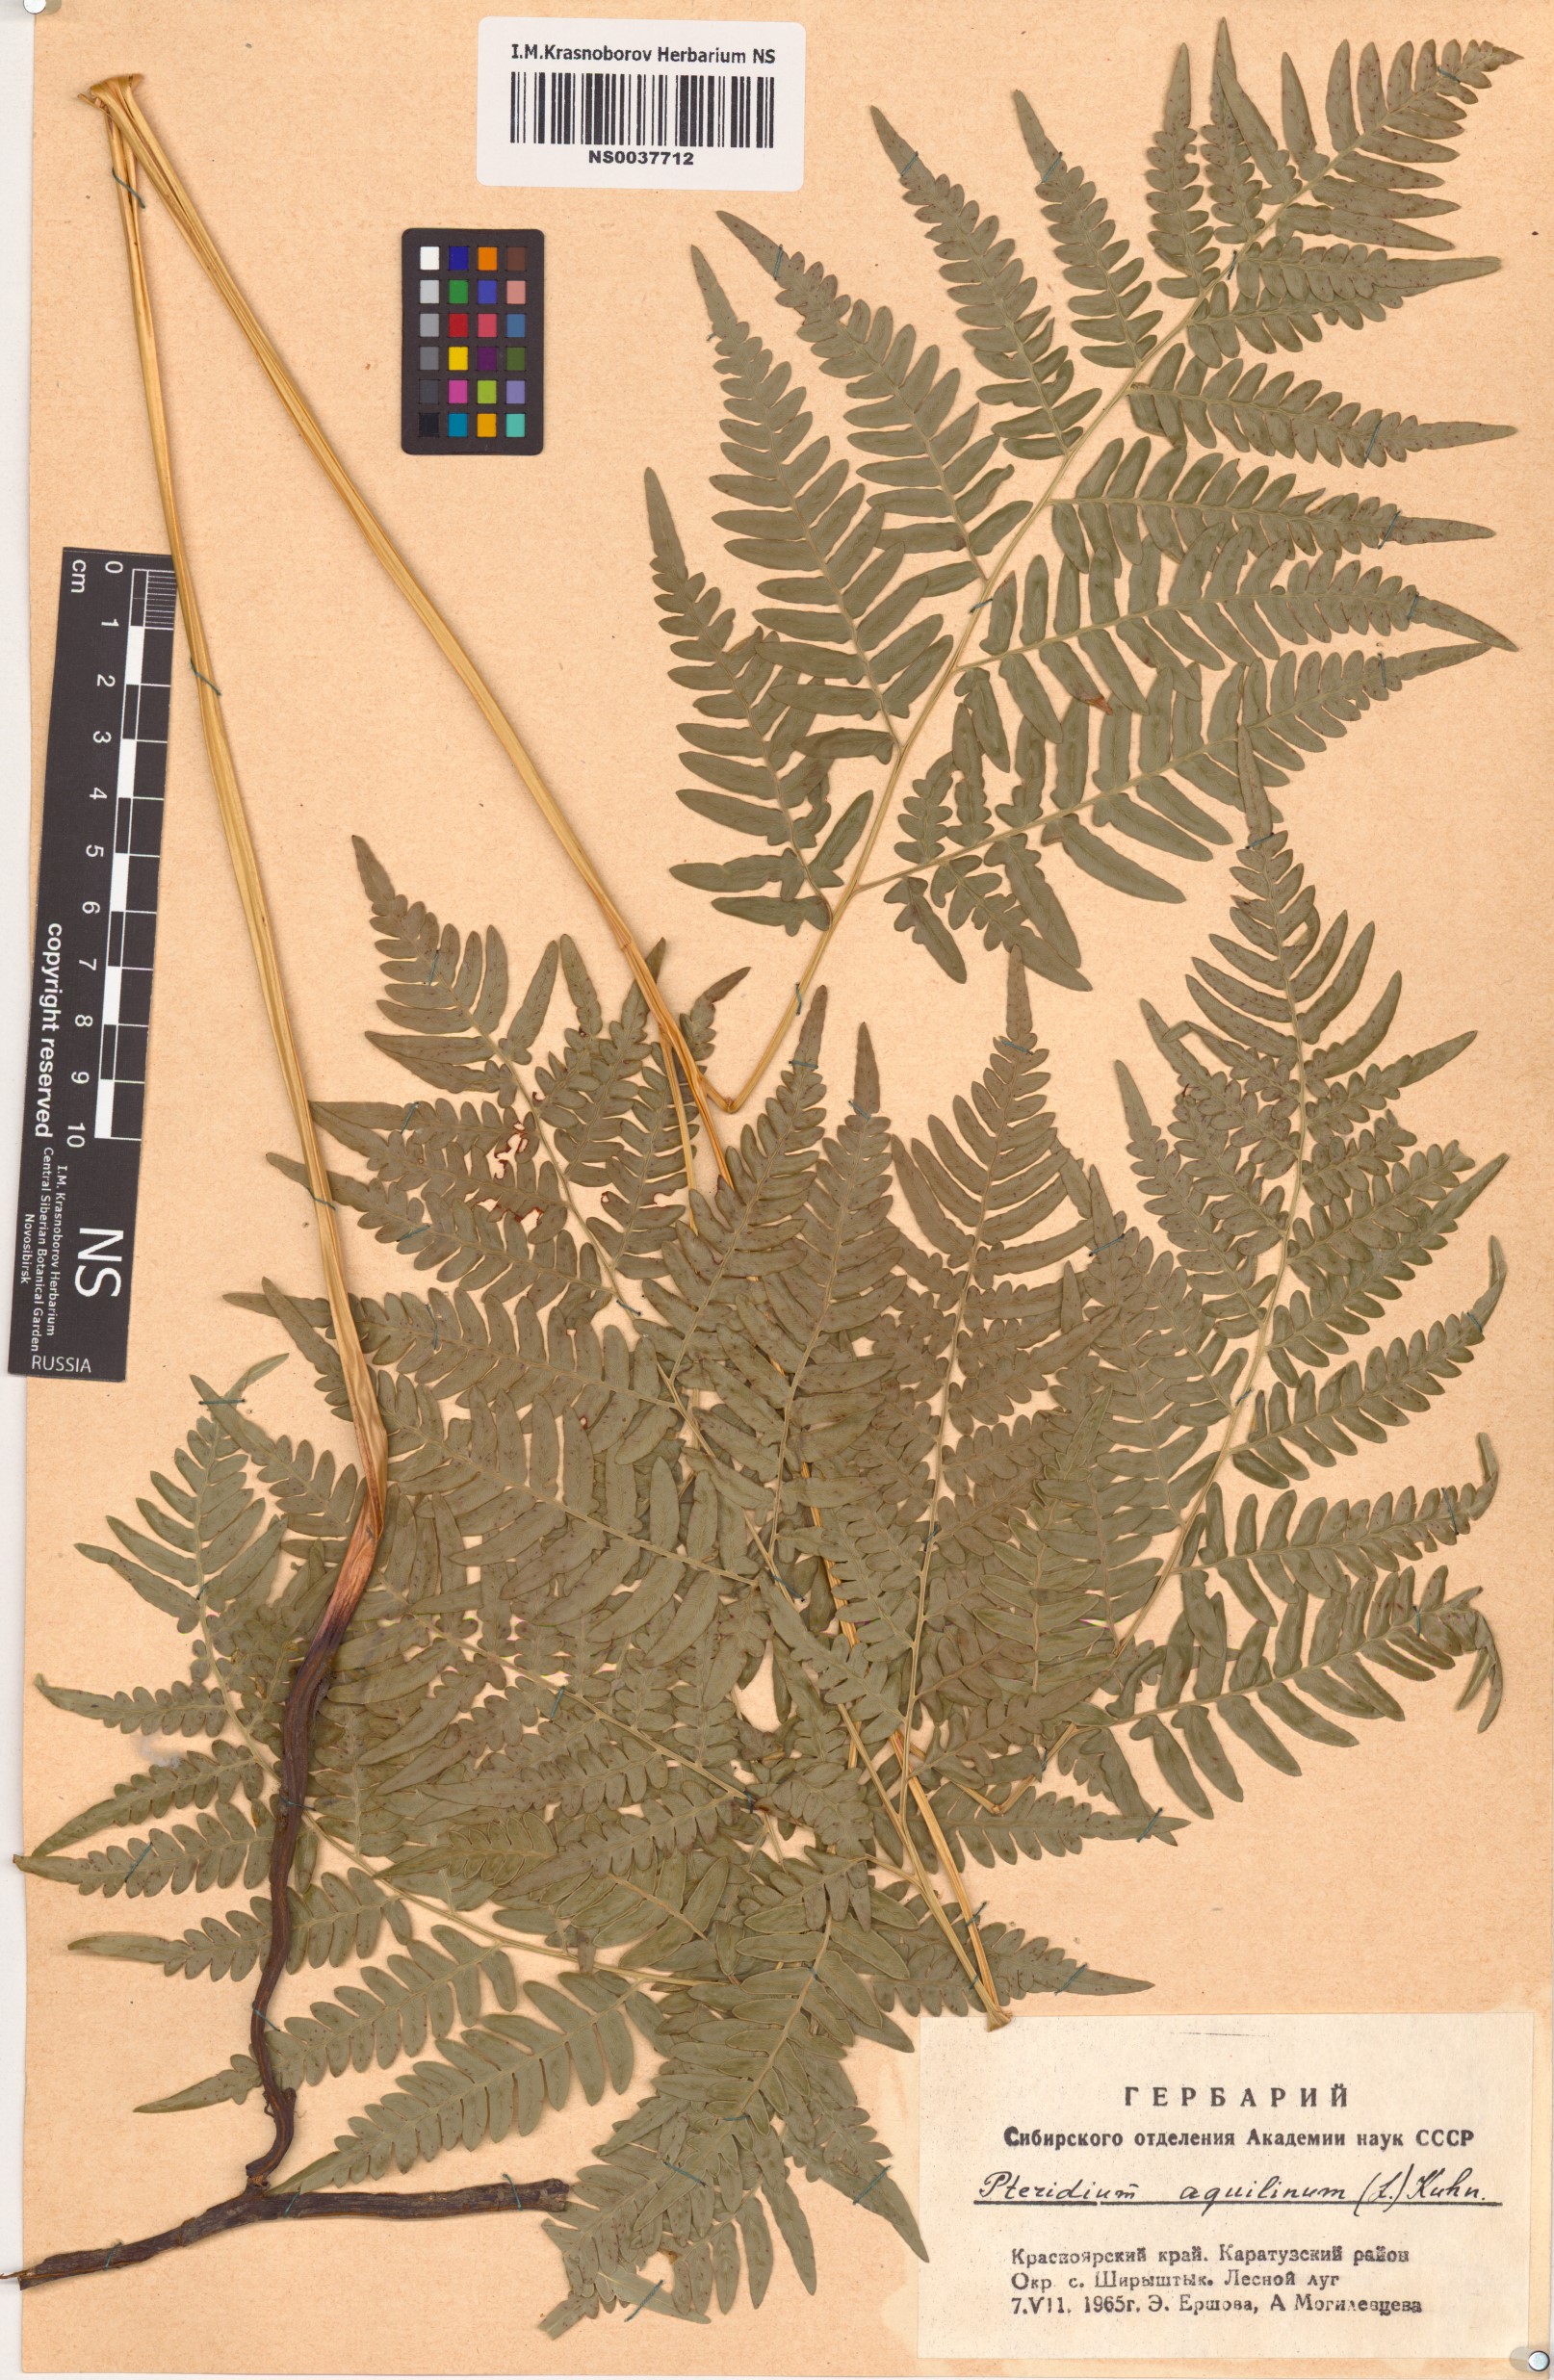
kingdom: Plantae
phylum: Tracheophyta
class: Polypodiopsida
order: Polypodiales
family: Dennstaedtiaceae
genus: Pteridium
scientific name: Pteridium aquilinum
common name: Bracken
